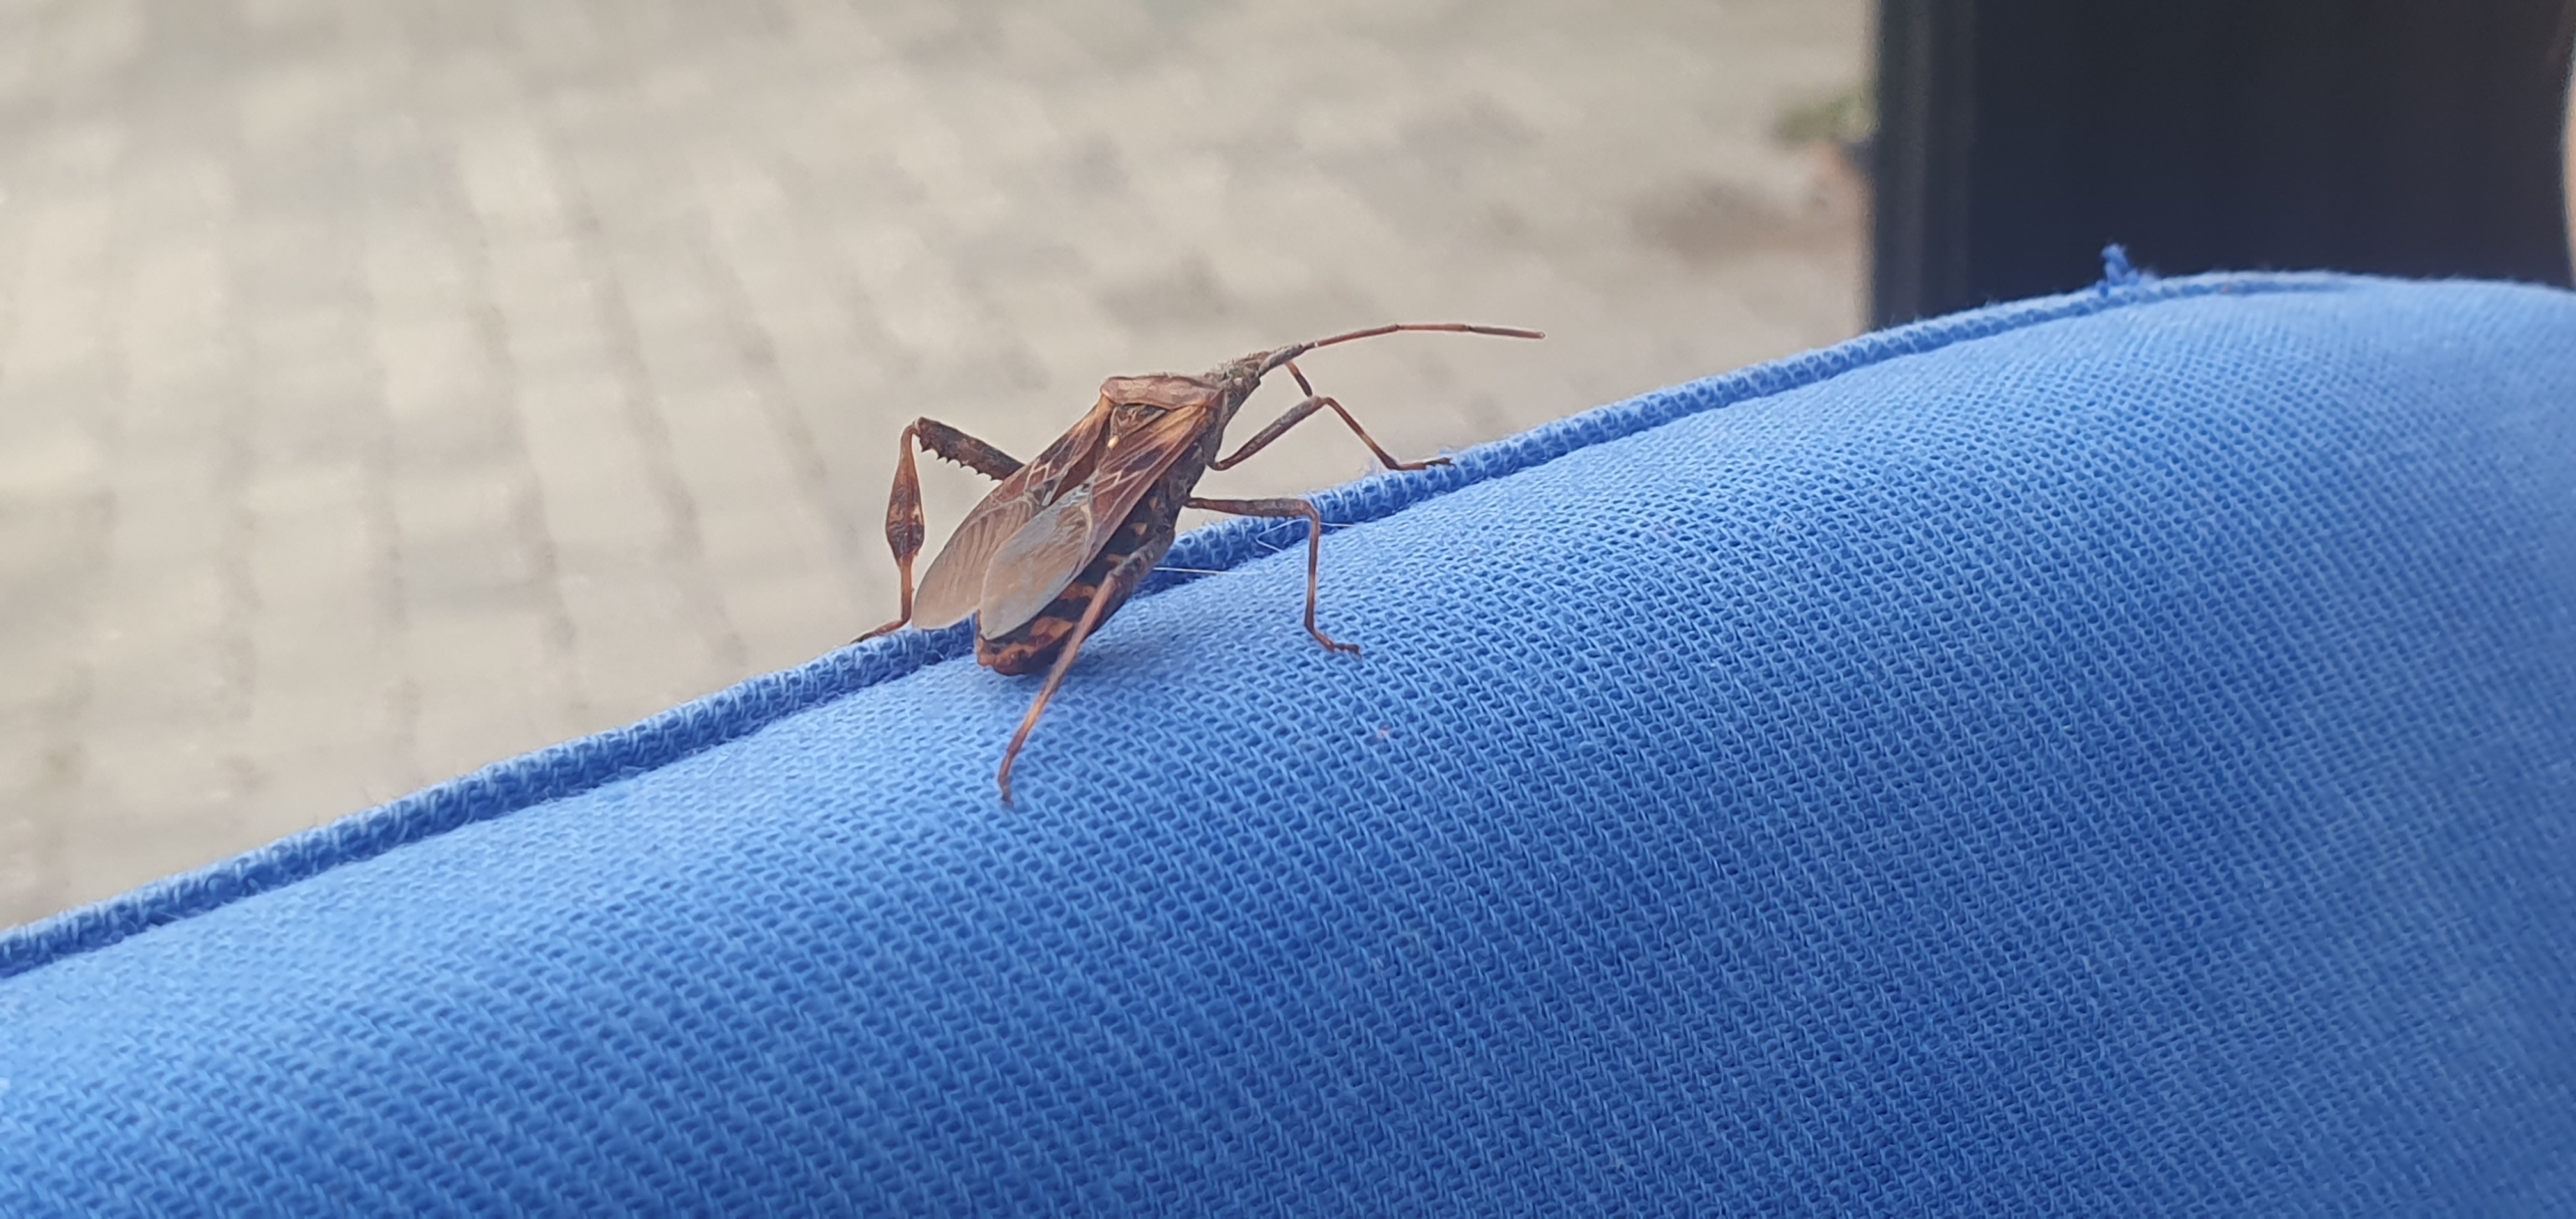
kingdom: Animalia
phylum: Arthropoda
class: Insecta
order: Hemiptera
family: Coreidae
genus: Leptoglossus
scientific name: Leptoglossus occidentalis
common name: Amerikansk fyrretæge
